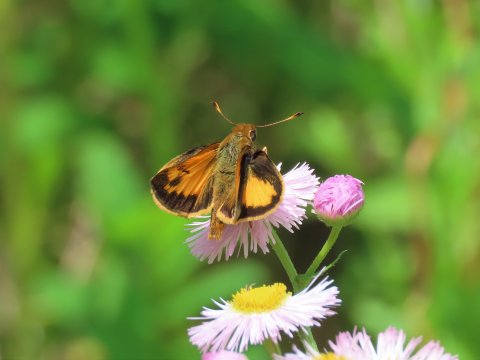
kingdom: Animalia
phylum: Arthropoda
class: Insecta
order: Lepidoptera
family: Hesperiidae
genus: Lon
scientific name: Lon zabulon
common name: Zabulon Skipper
